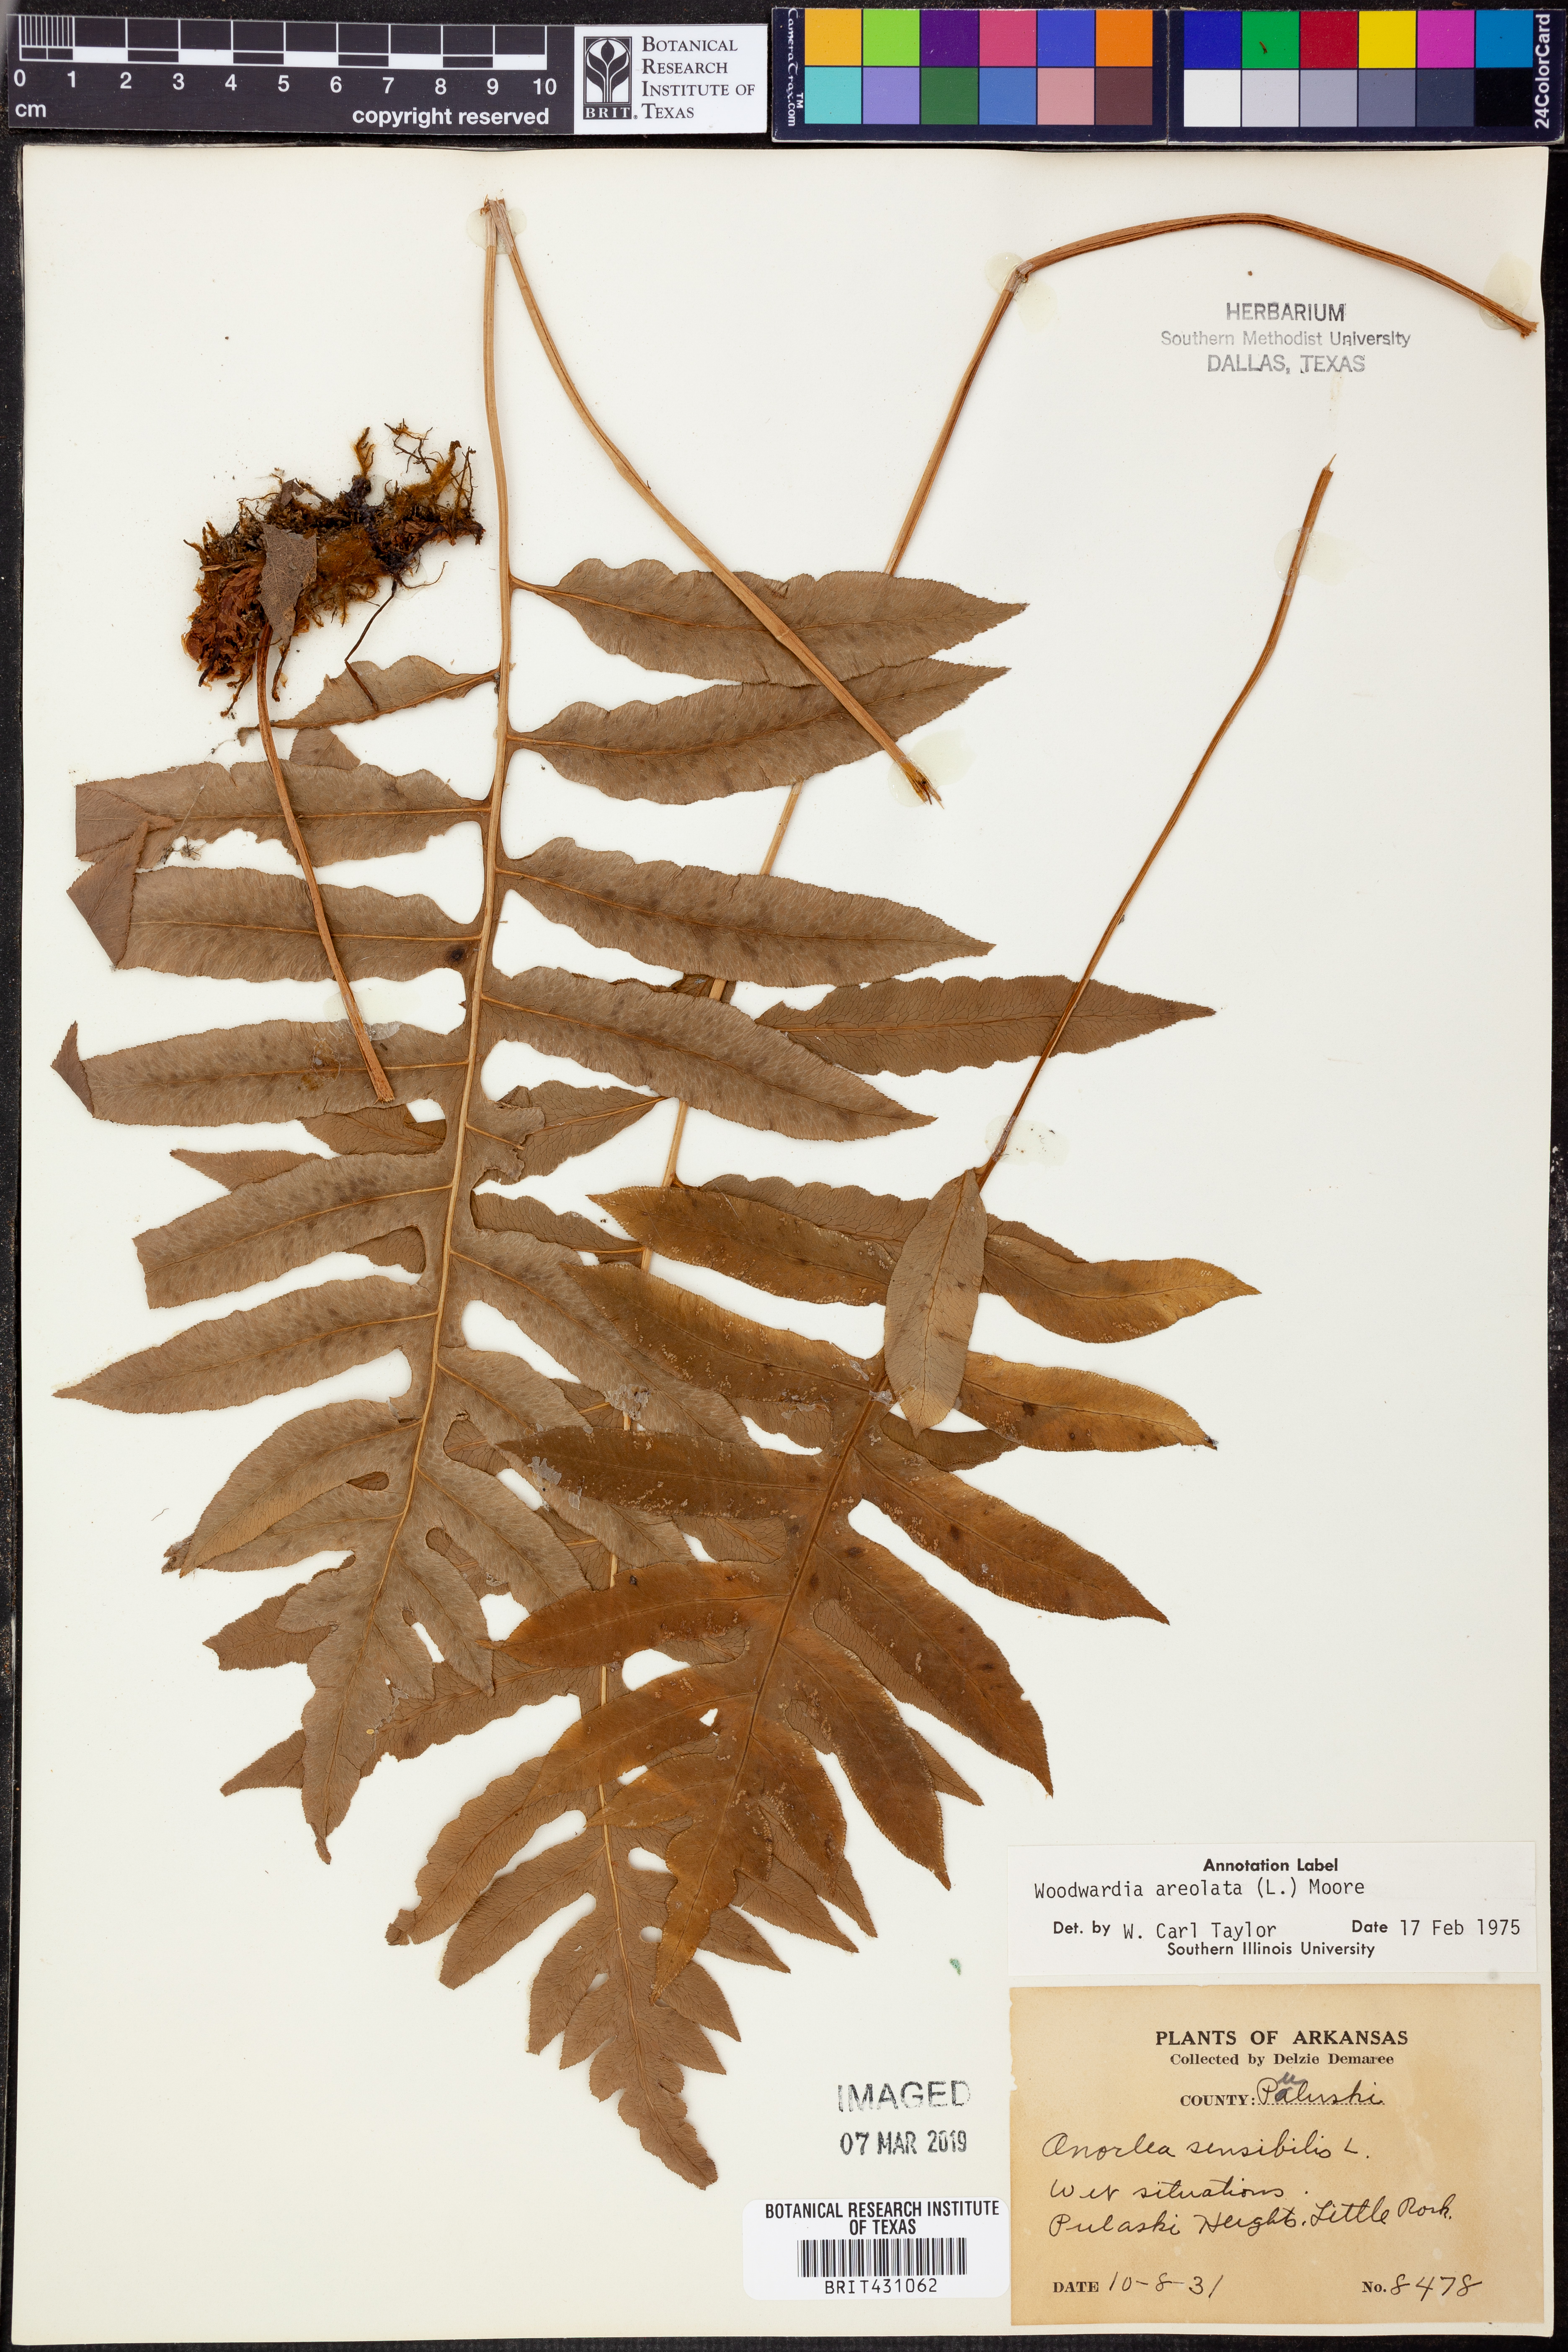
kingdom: Plantae
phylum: Tracheophyta
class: Polypodiopsida
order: Polypodiales
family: Onocleaceae
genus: Onoclea
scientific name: Onoclea sensibilis
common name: Sensitive fern
